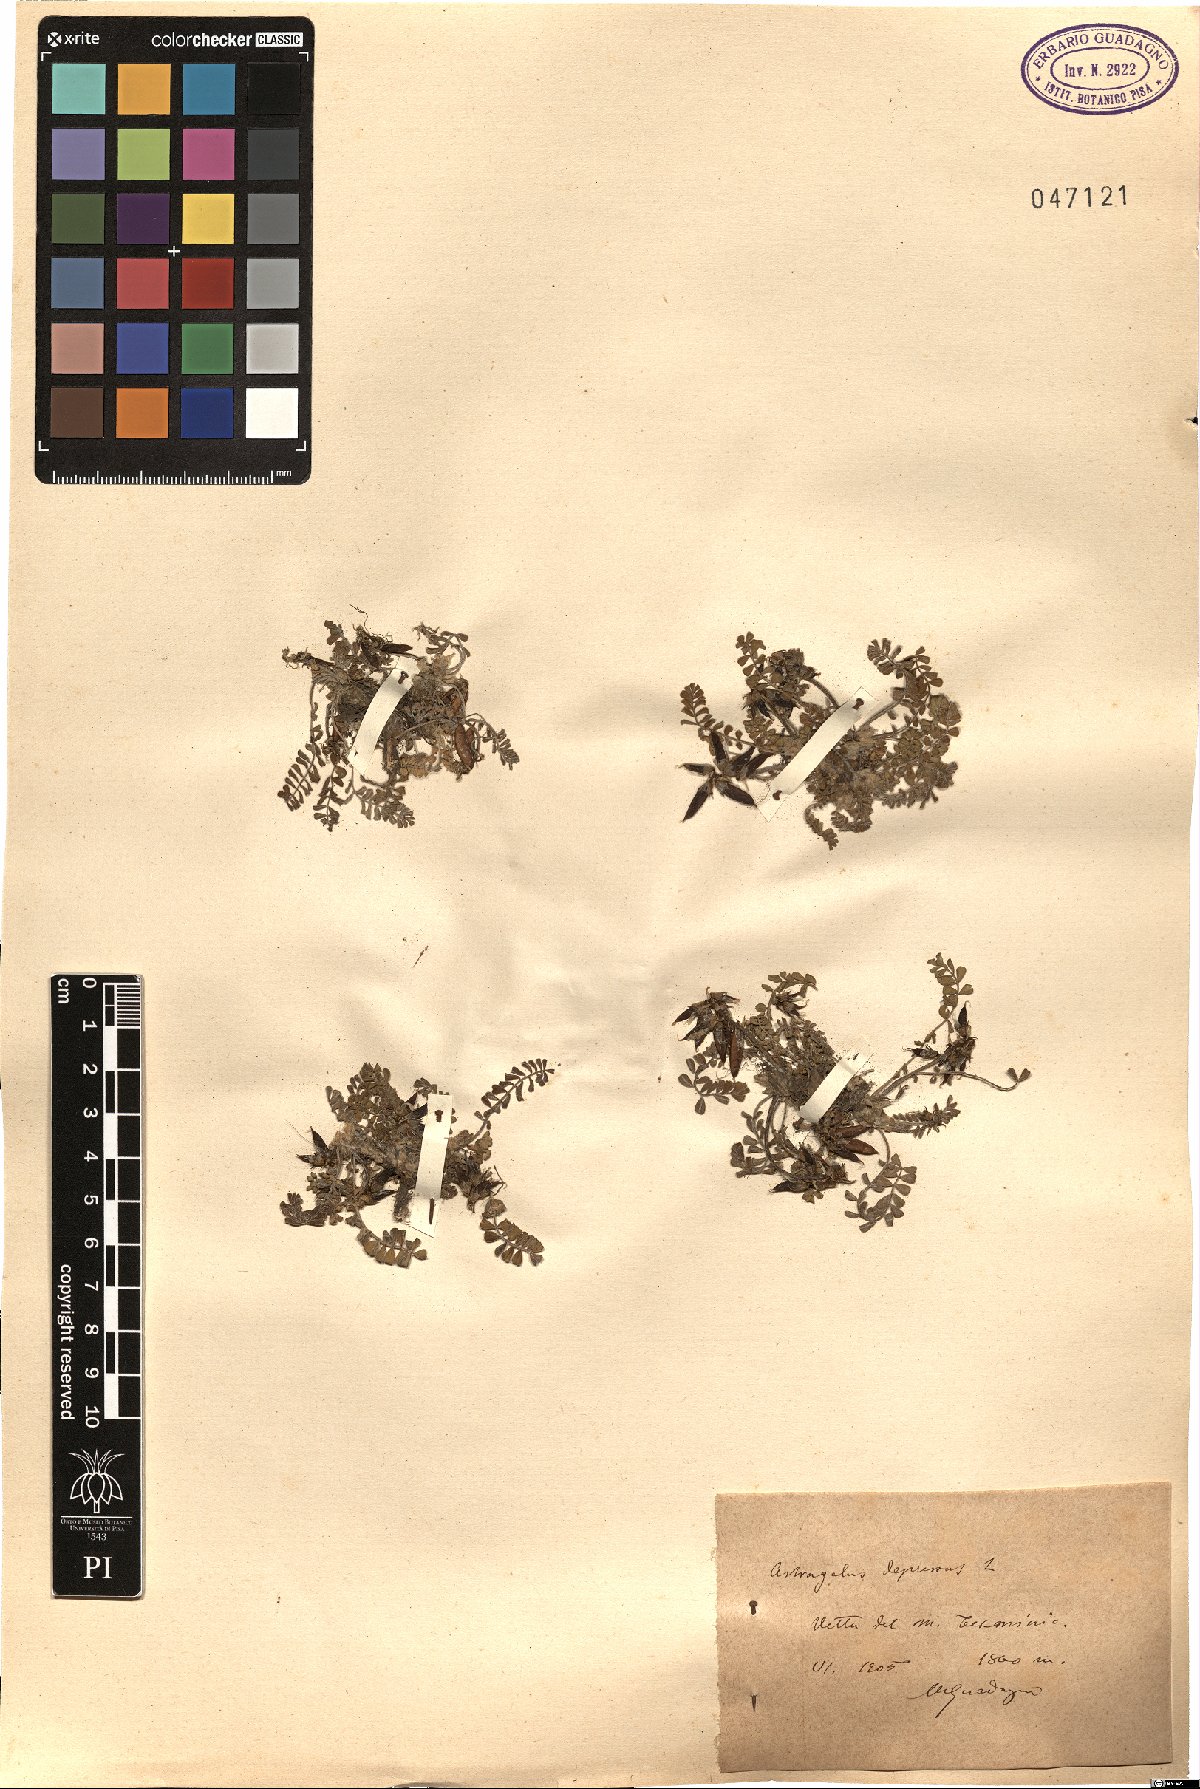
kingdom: Plantae
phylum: Tracheophyta
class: Magnoliopsida
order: Fabales
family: Fabaceae
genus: Astragalus
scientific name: Astragalus depressus
